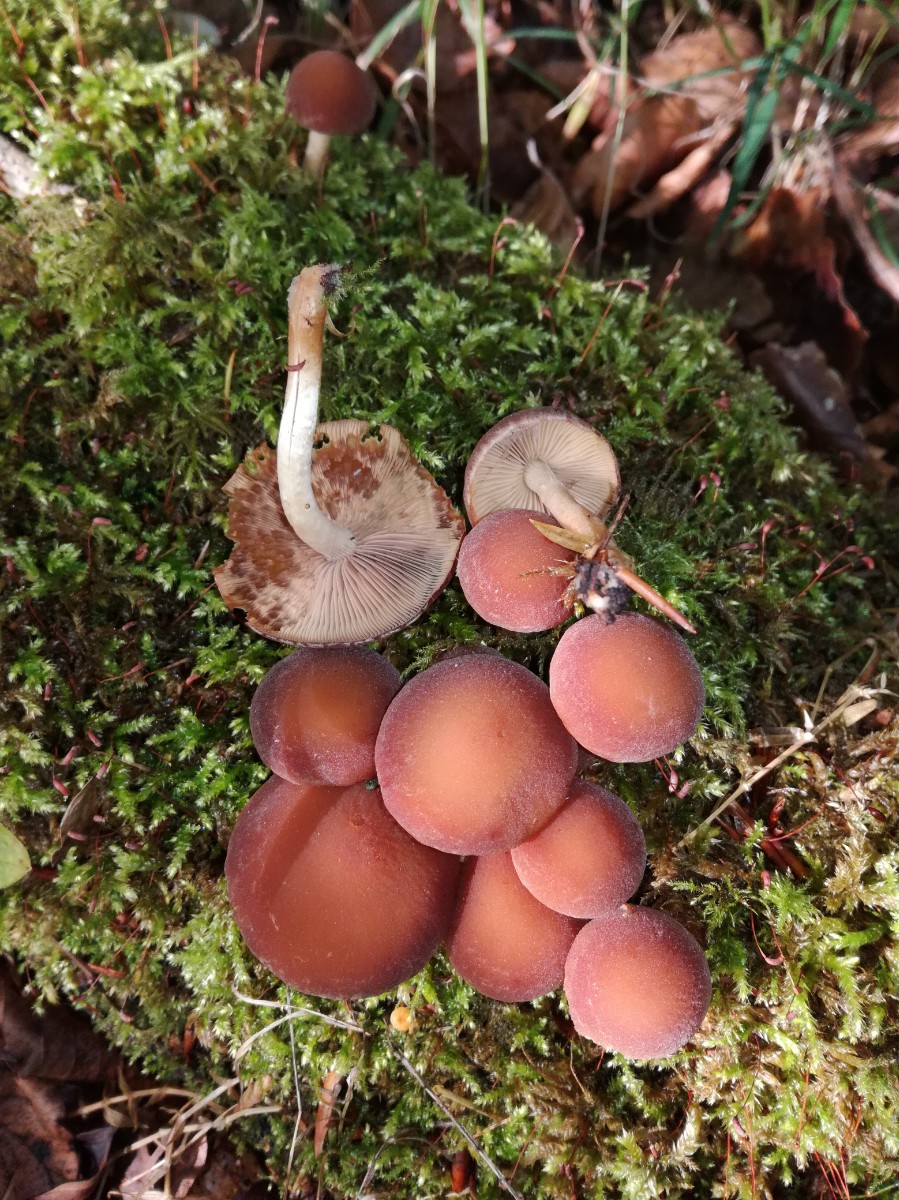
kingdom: Fungi
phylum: Basidiomycota
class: Agaricomycetes
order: Agaricales
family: Psathyrellaceae
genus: Psathyrella
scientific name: Psathyrella piluliformis
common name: lysstokket mørkhat
